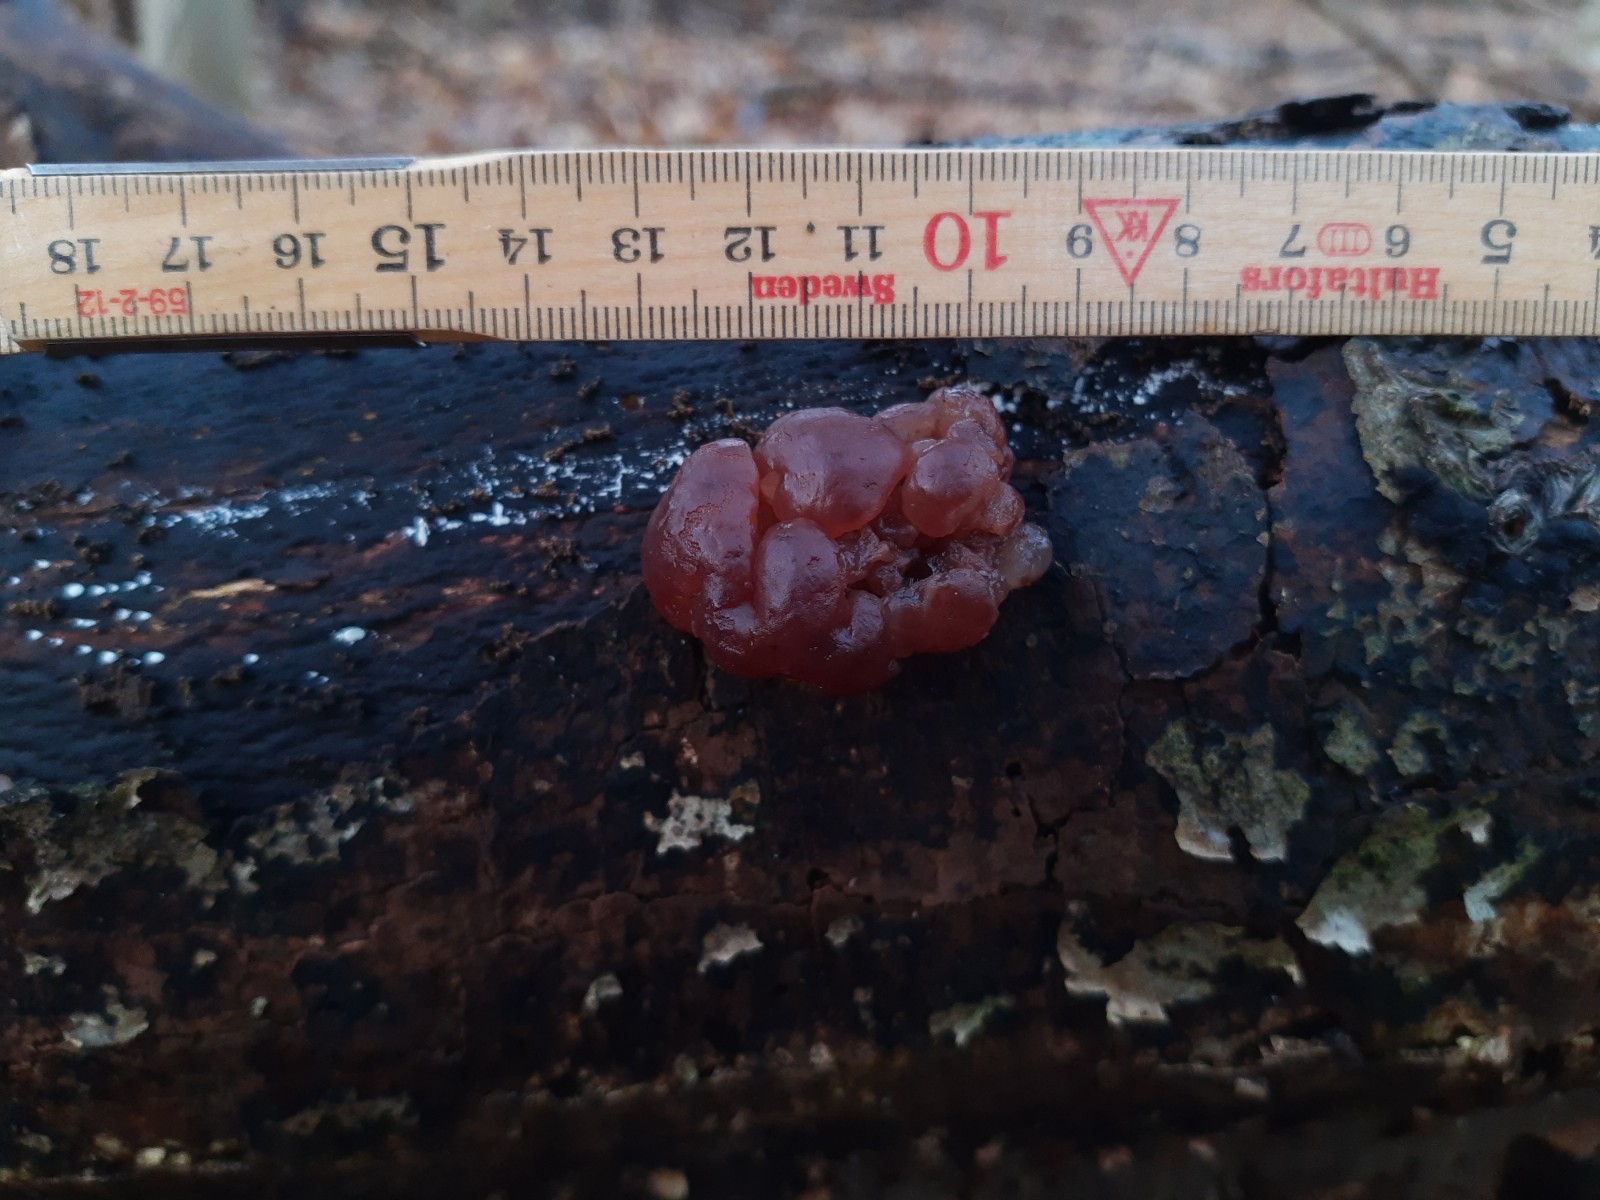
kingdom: Fungi
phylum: Ascomycota
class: Leotiomycetes
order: Helotiales
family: Gelatinodiscaceae
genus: Ascotremella
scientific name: Ascotremella faginea
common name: hjerne-bævreskive
